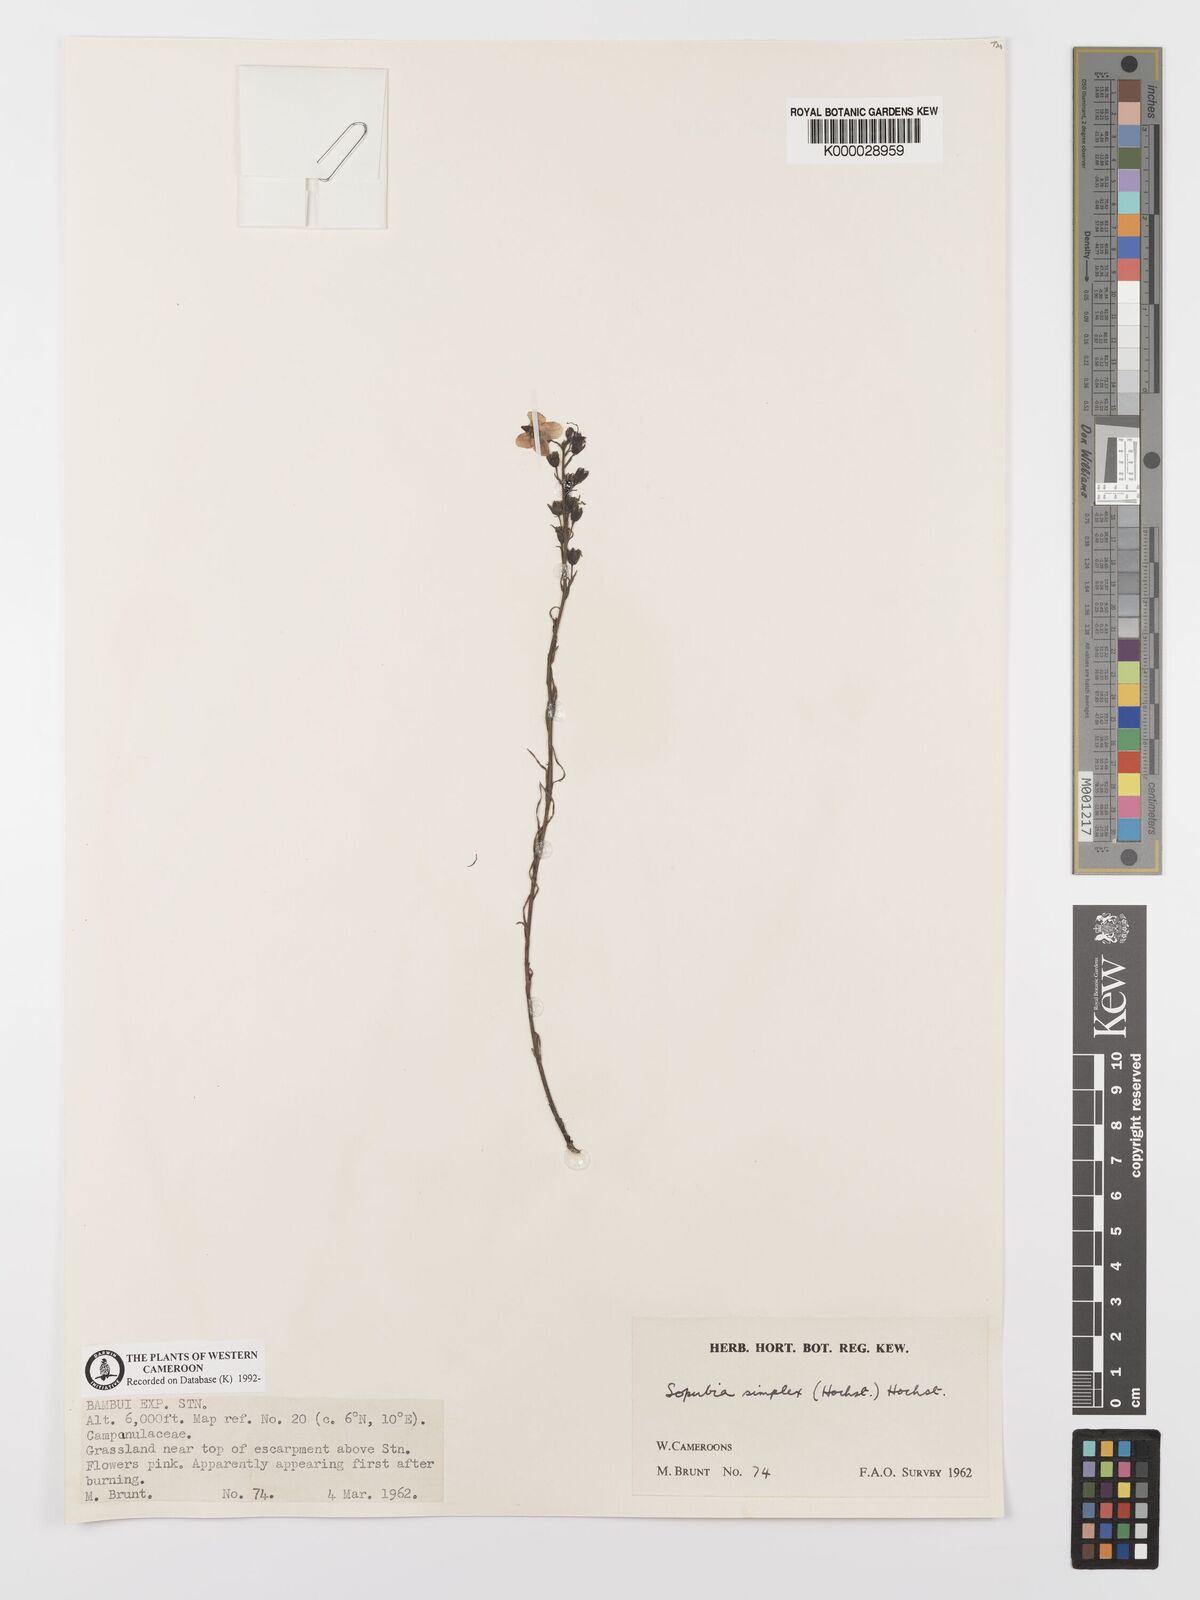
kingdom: Plantae
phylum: Tracheophyta
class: Magnoliopsida
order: Lamiales
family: Orobanchaceae
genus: Sopubia
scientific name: Sopubia simplex
